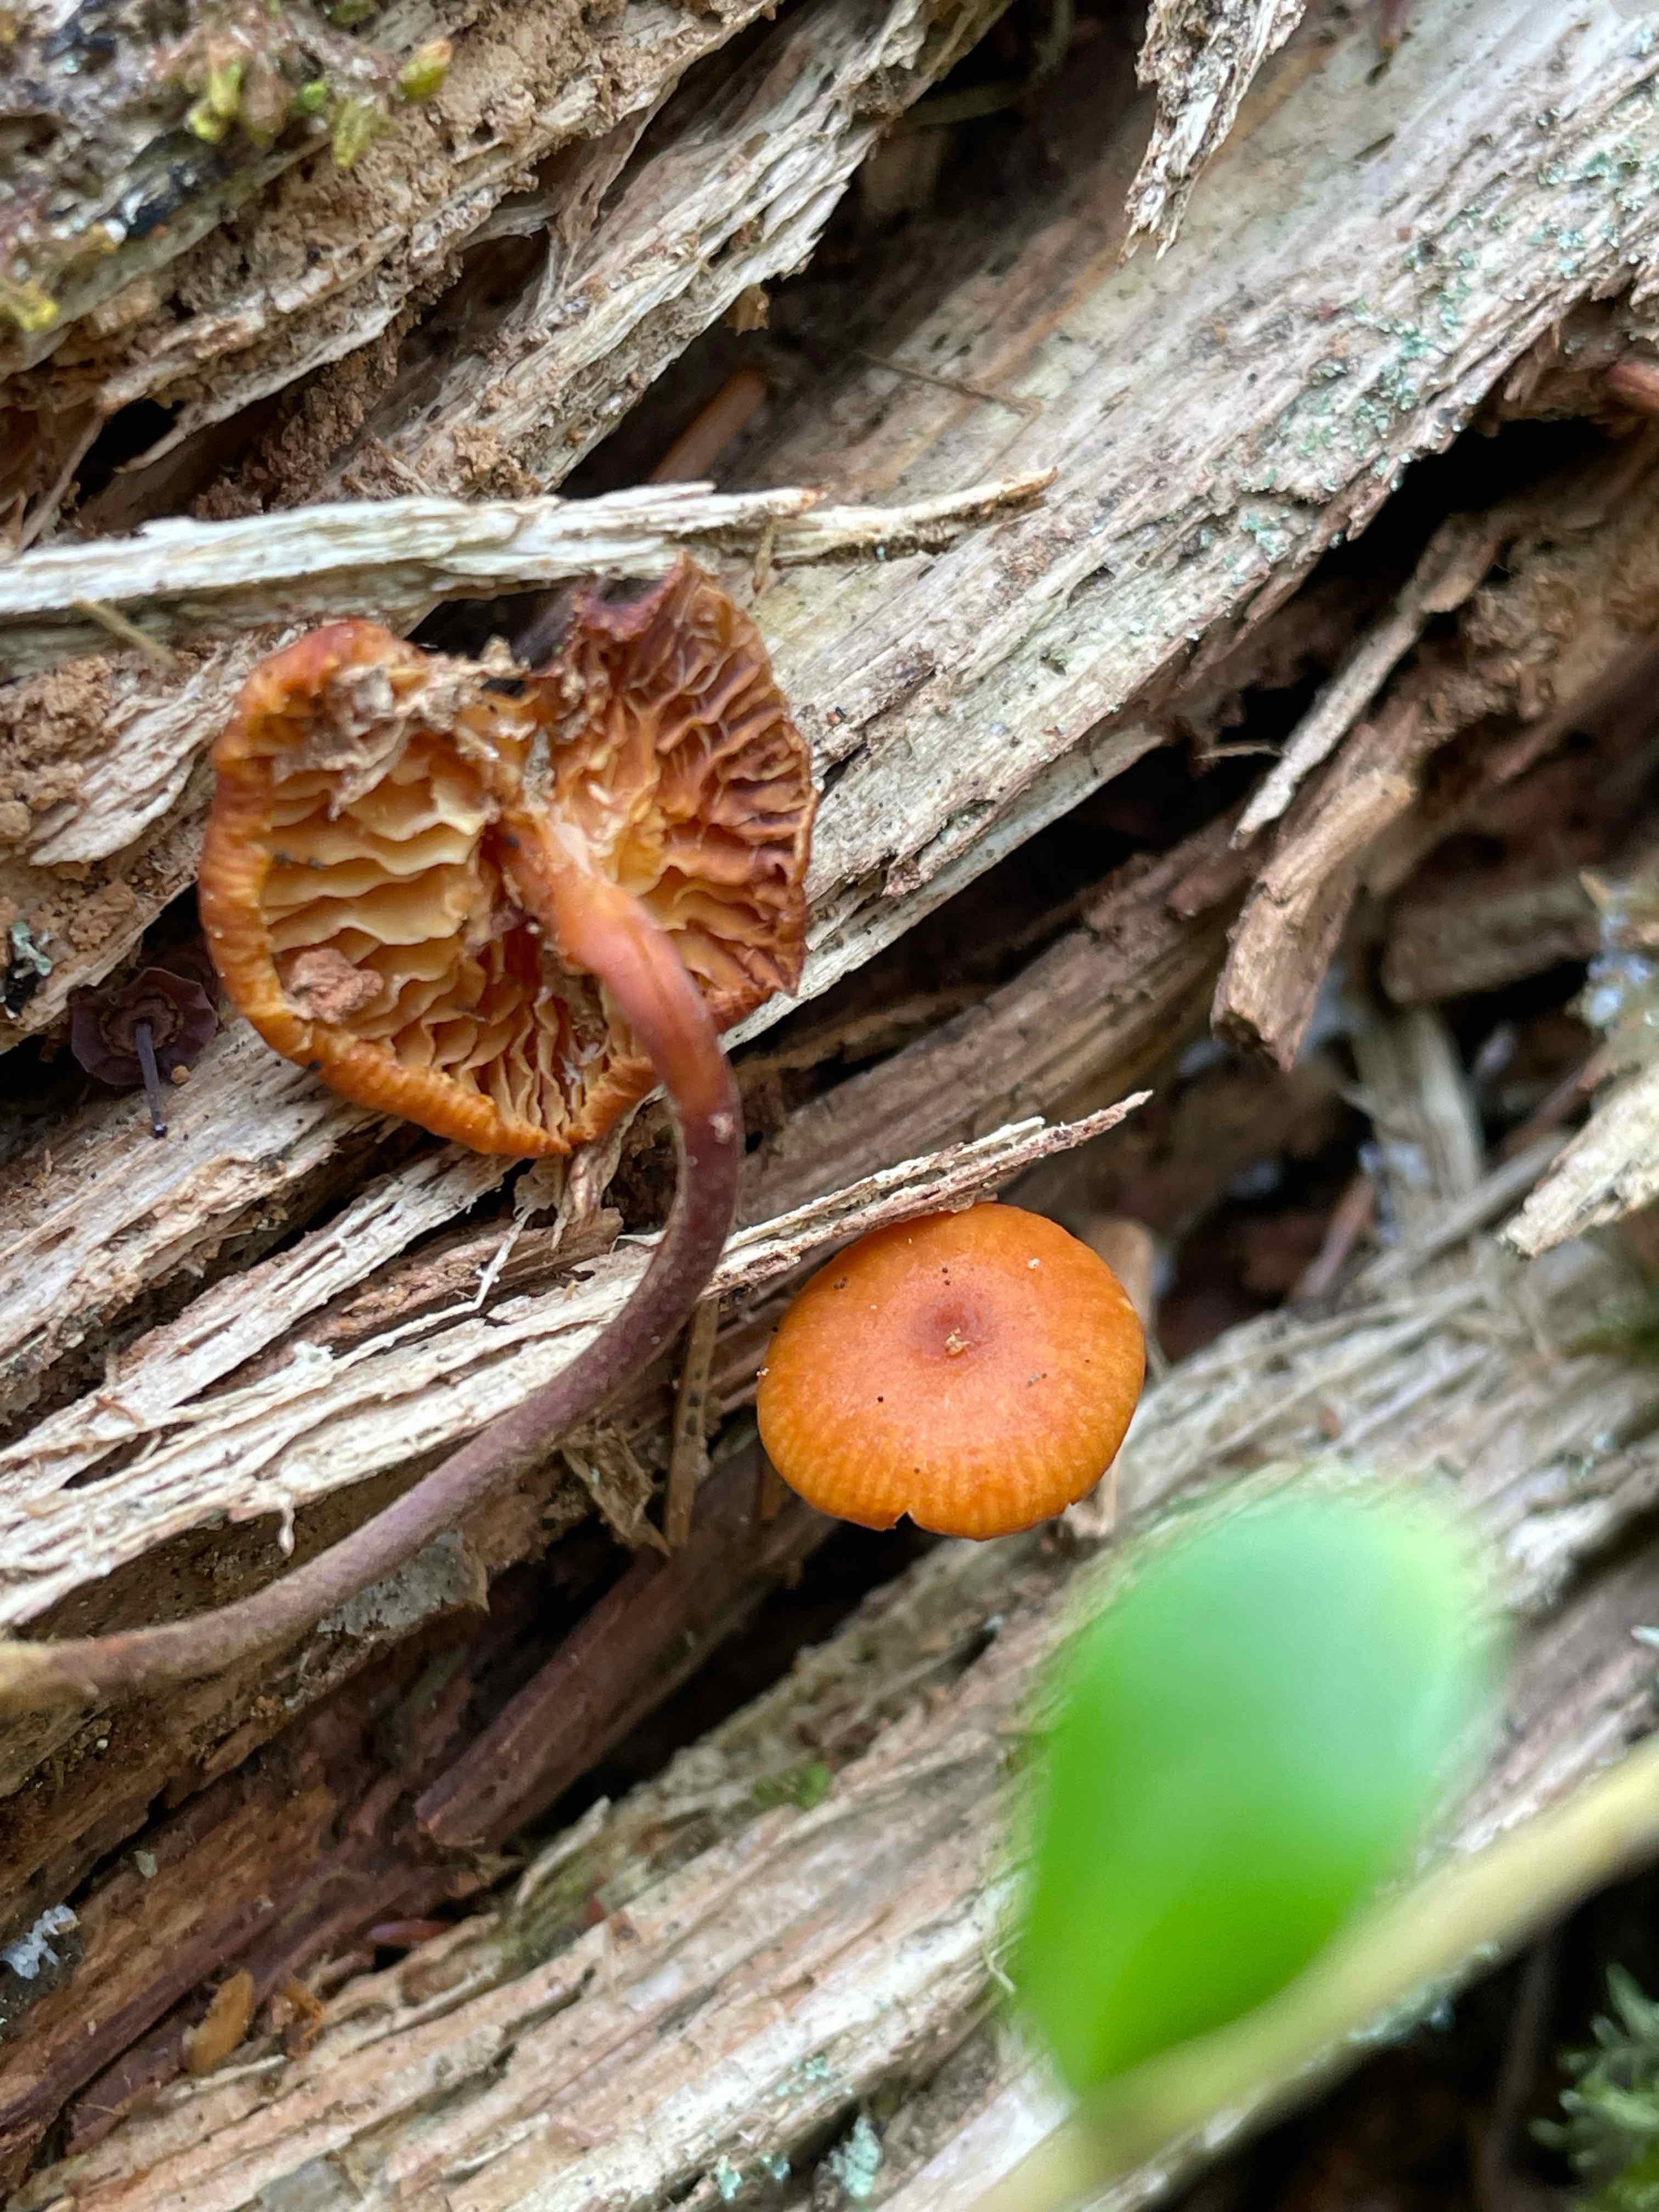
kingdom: Fungi
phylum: Basidiomycota
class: Agaricomycetes
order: Agaricales
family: Mycenaceae
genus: Xeromphalina
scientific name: Xeromphalina campanella
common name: klokke-tørhat
